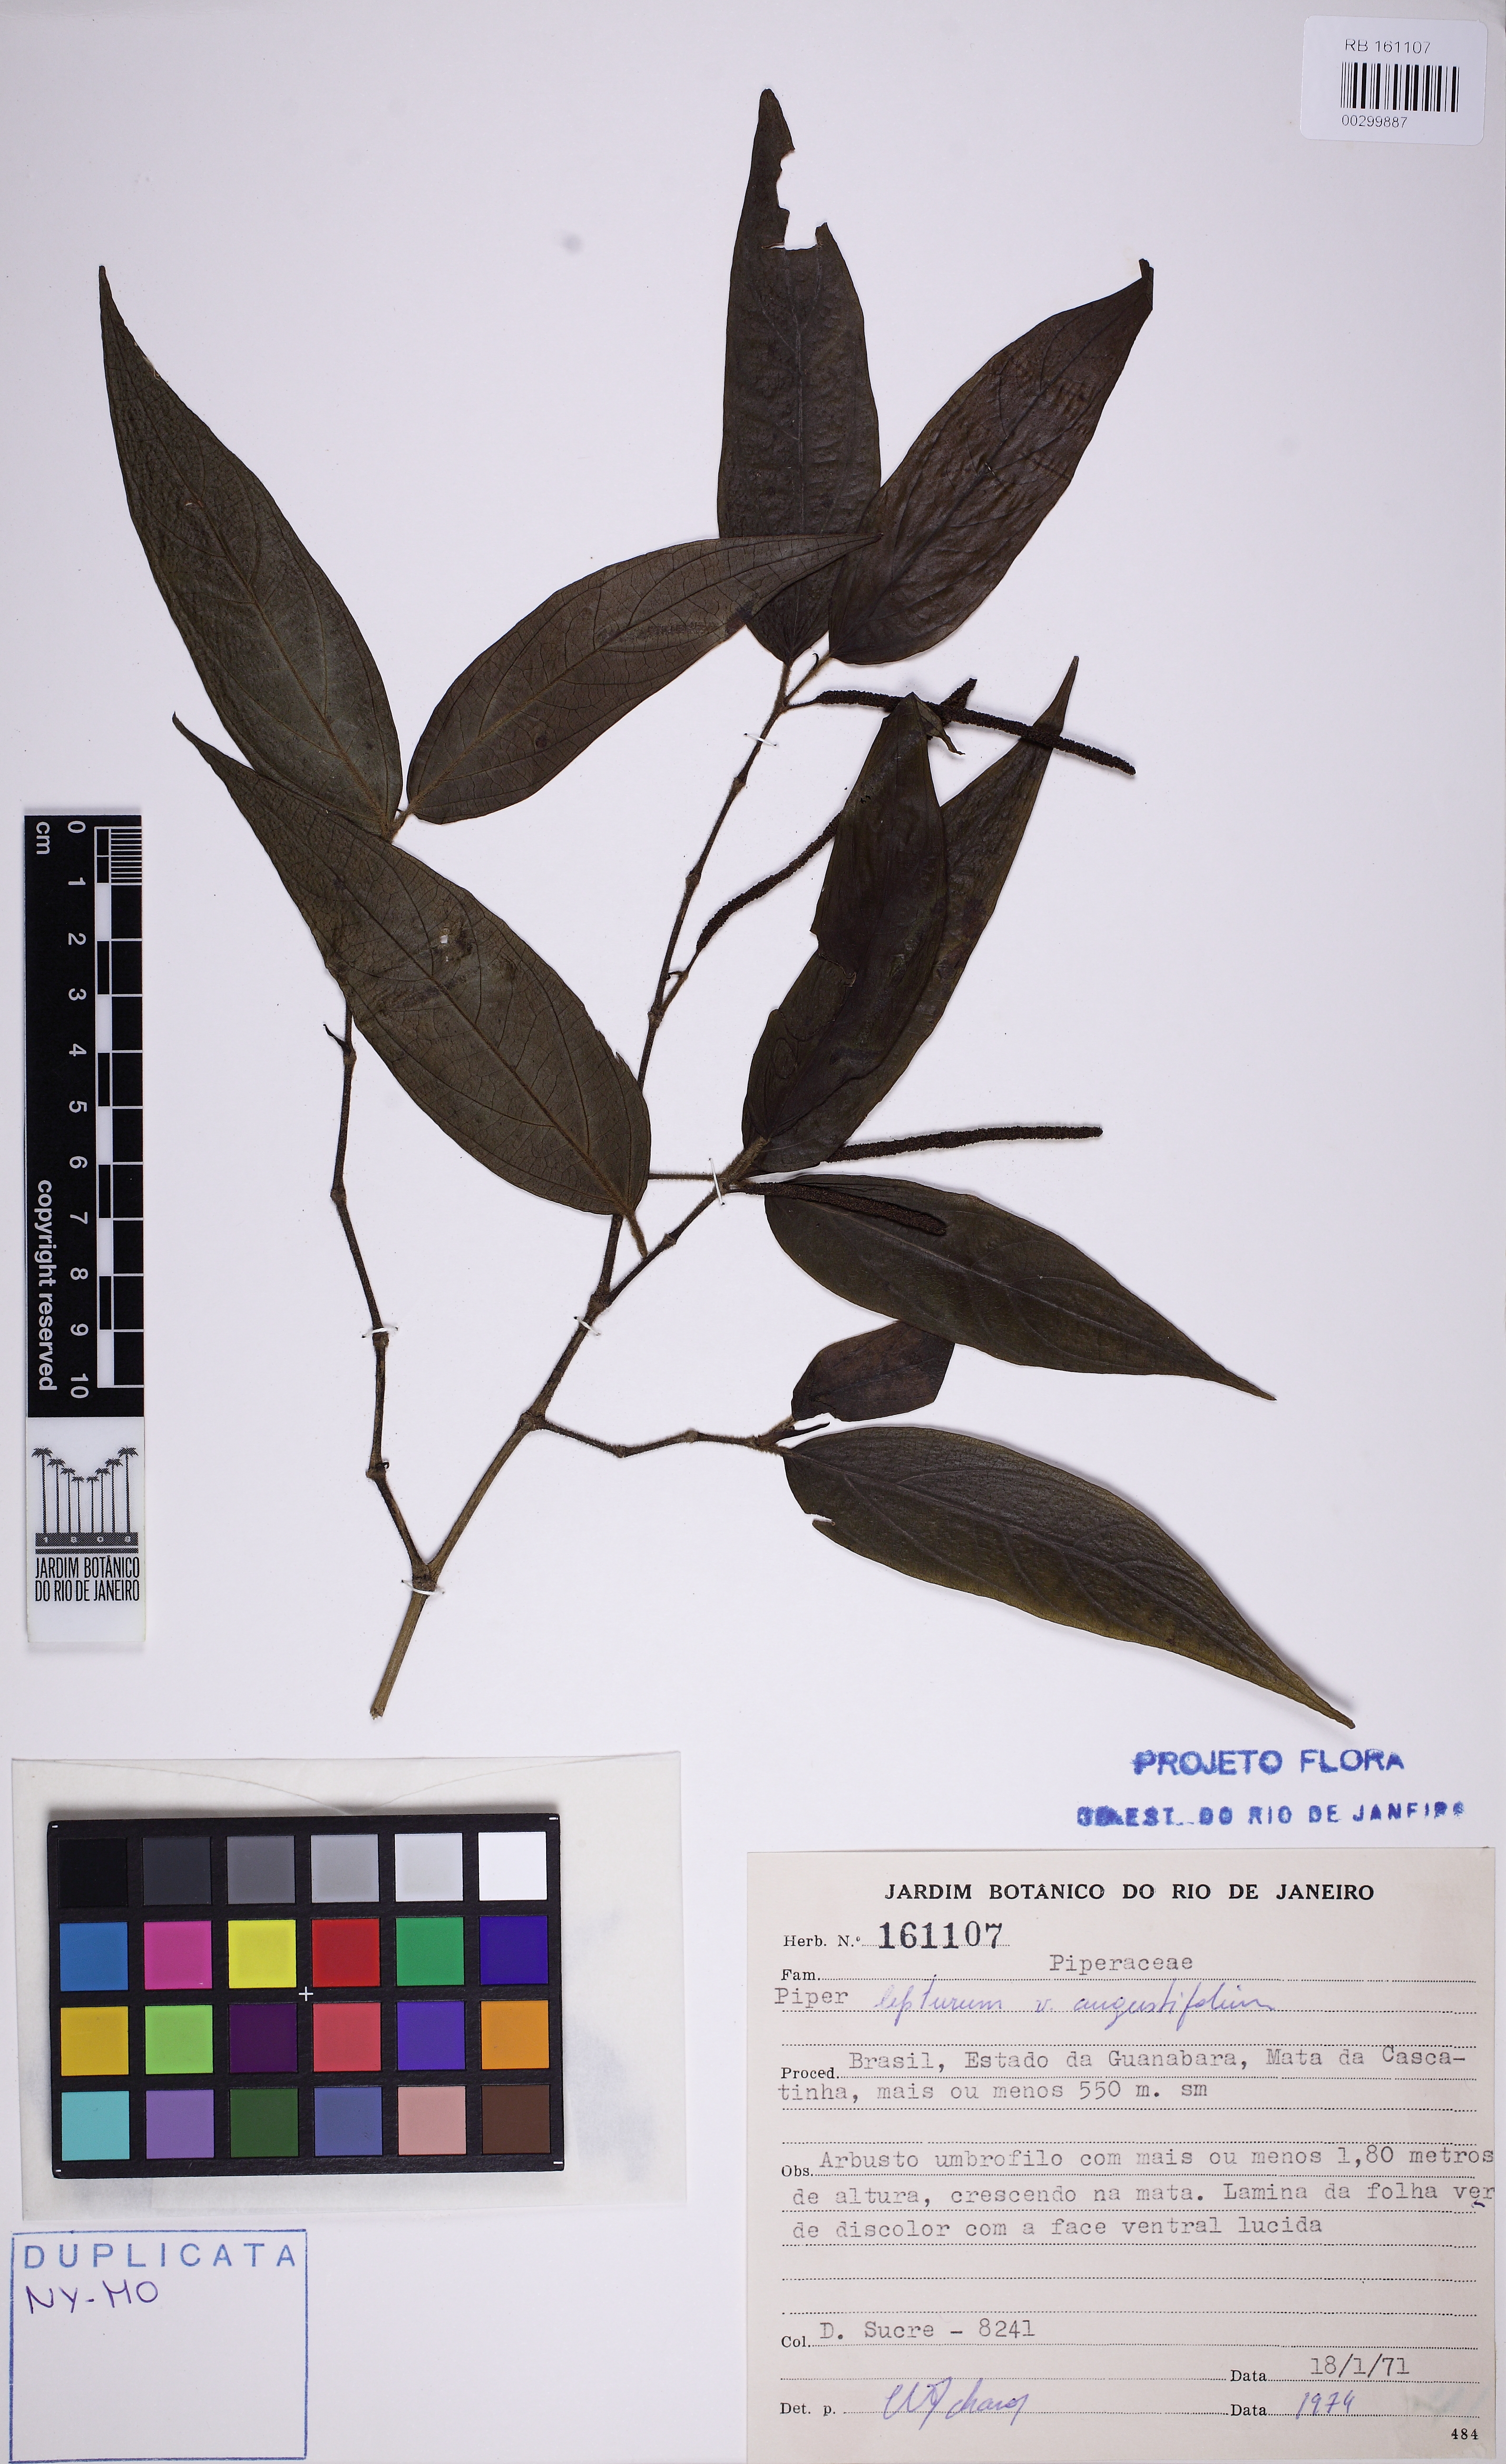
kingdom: Plantae
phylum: Tracheophyta
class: Magnoliopsida
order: Piperales
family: Piperaceae
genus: Piper
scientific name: Piper lepturum
